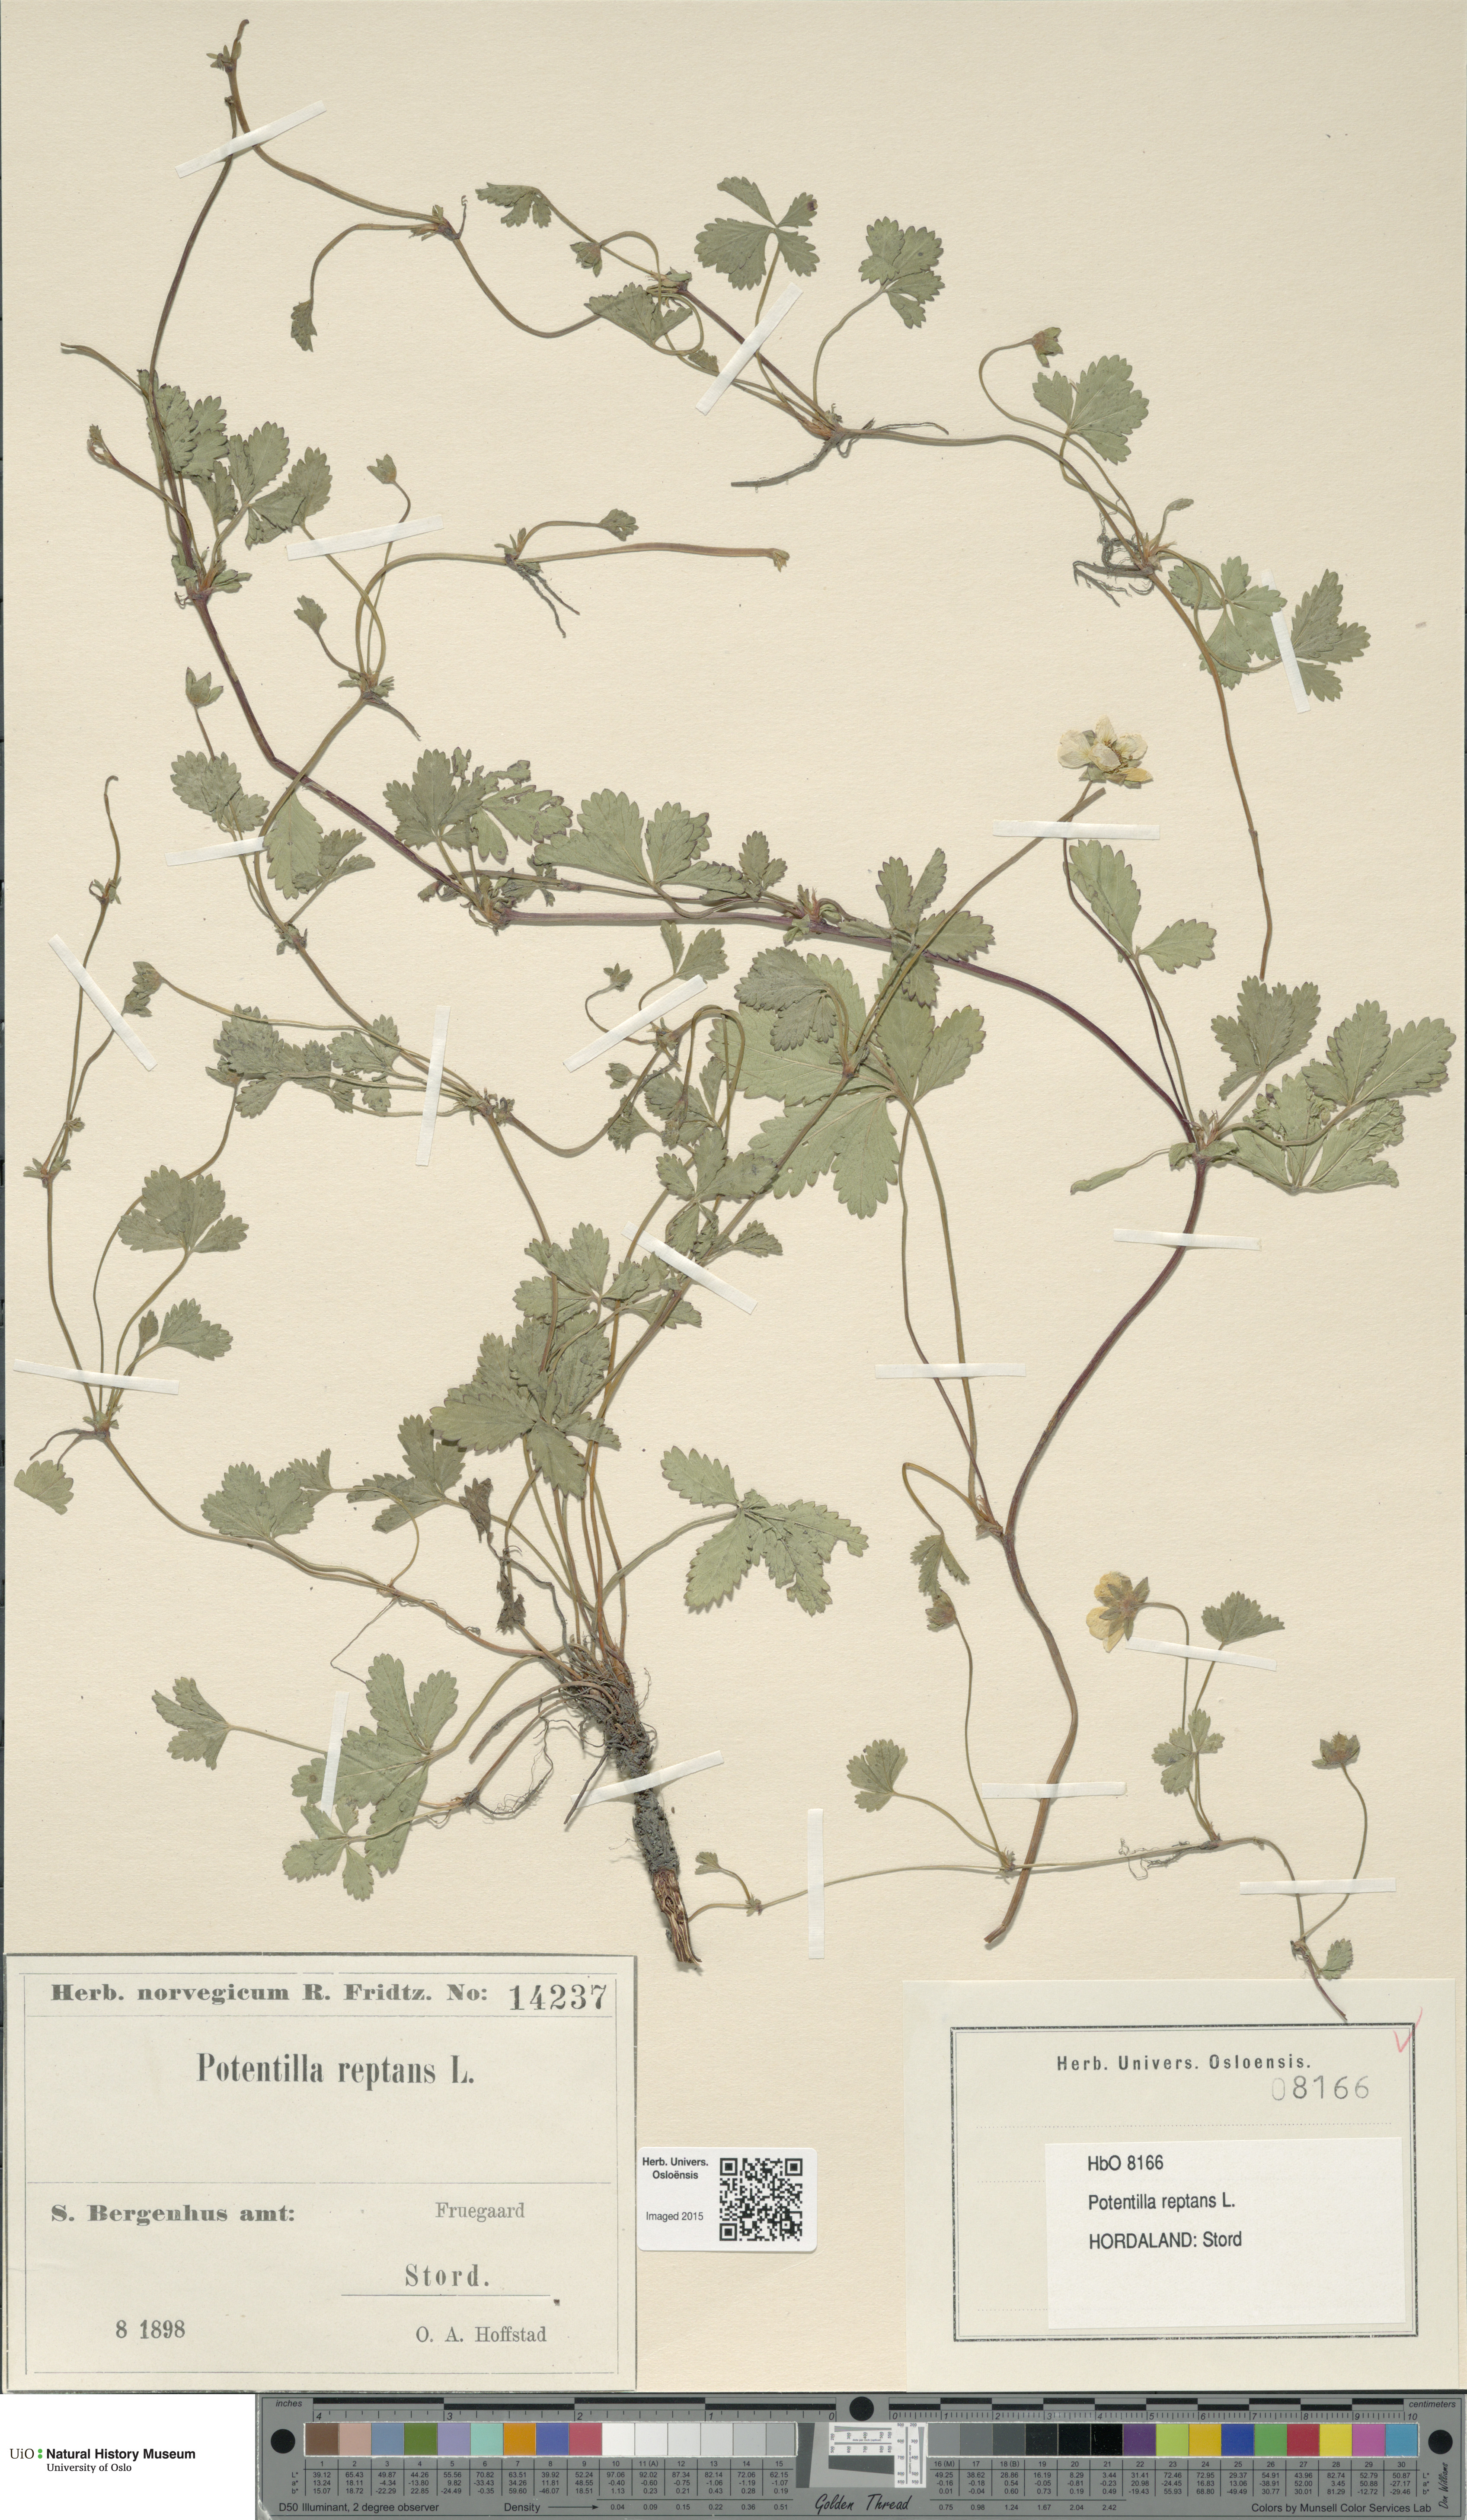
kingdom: Plantae
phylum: Tracheophyta
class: Magnoliopsida
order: Rosales
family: Rosaceae
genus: Potentilla
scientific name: Potentilla reptans
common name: Creeping cinquefoil
